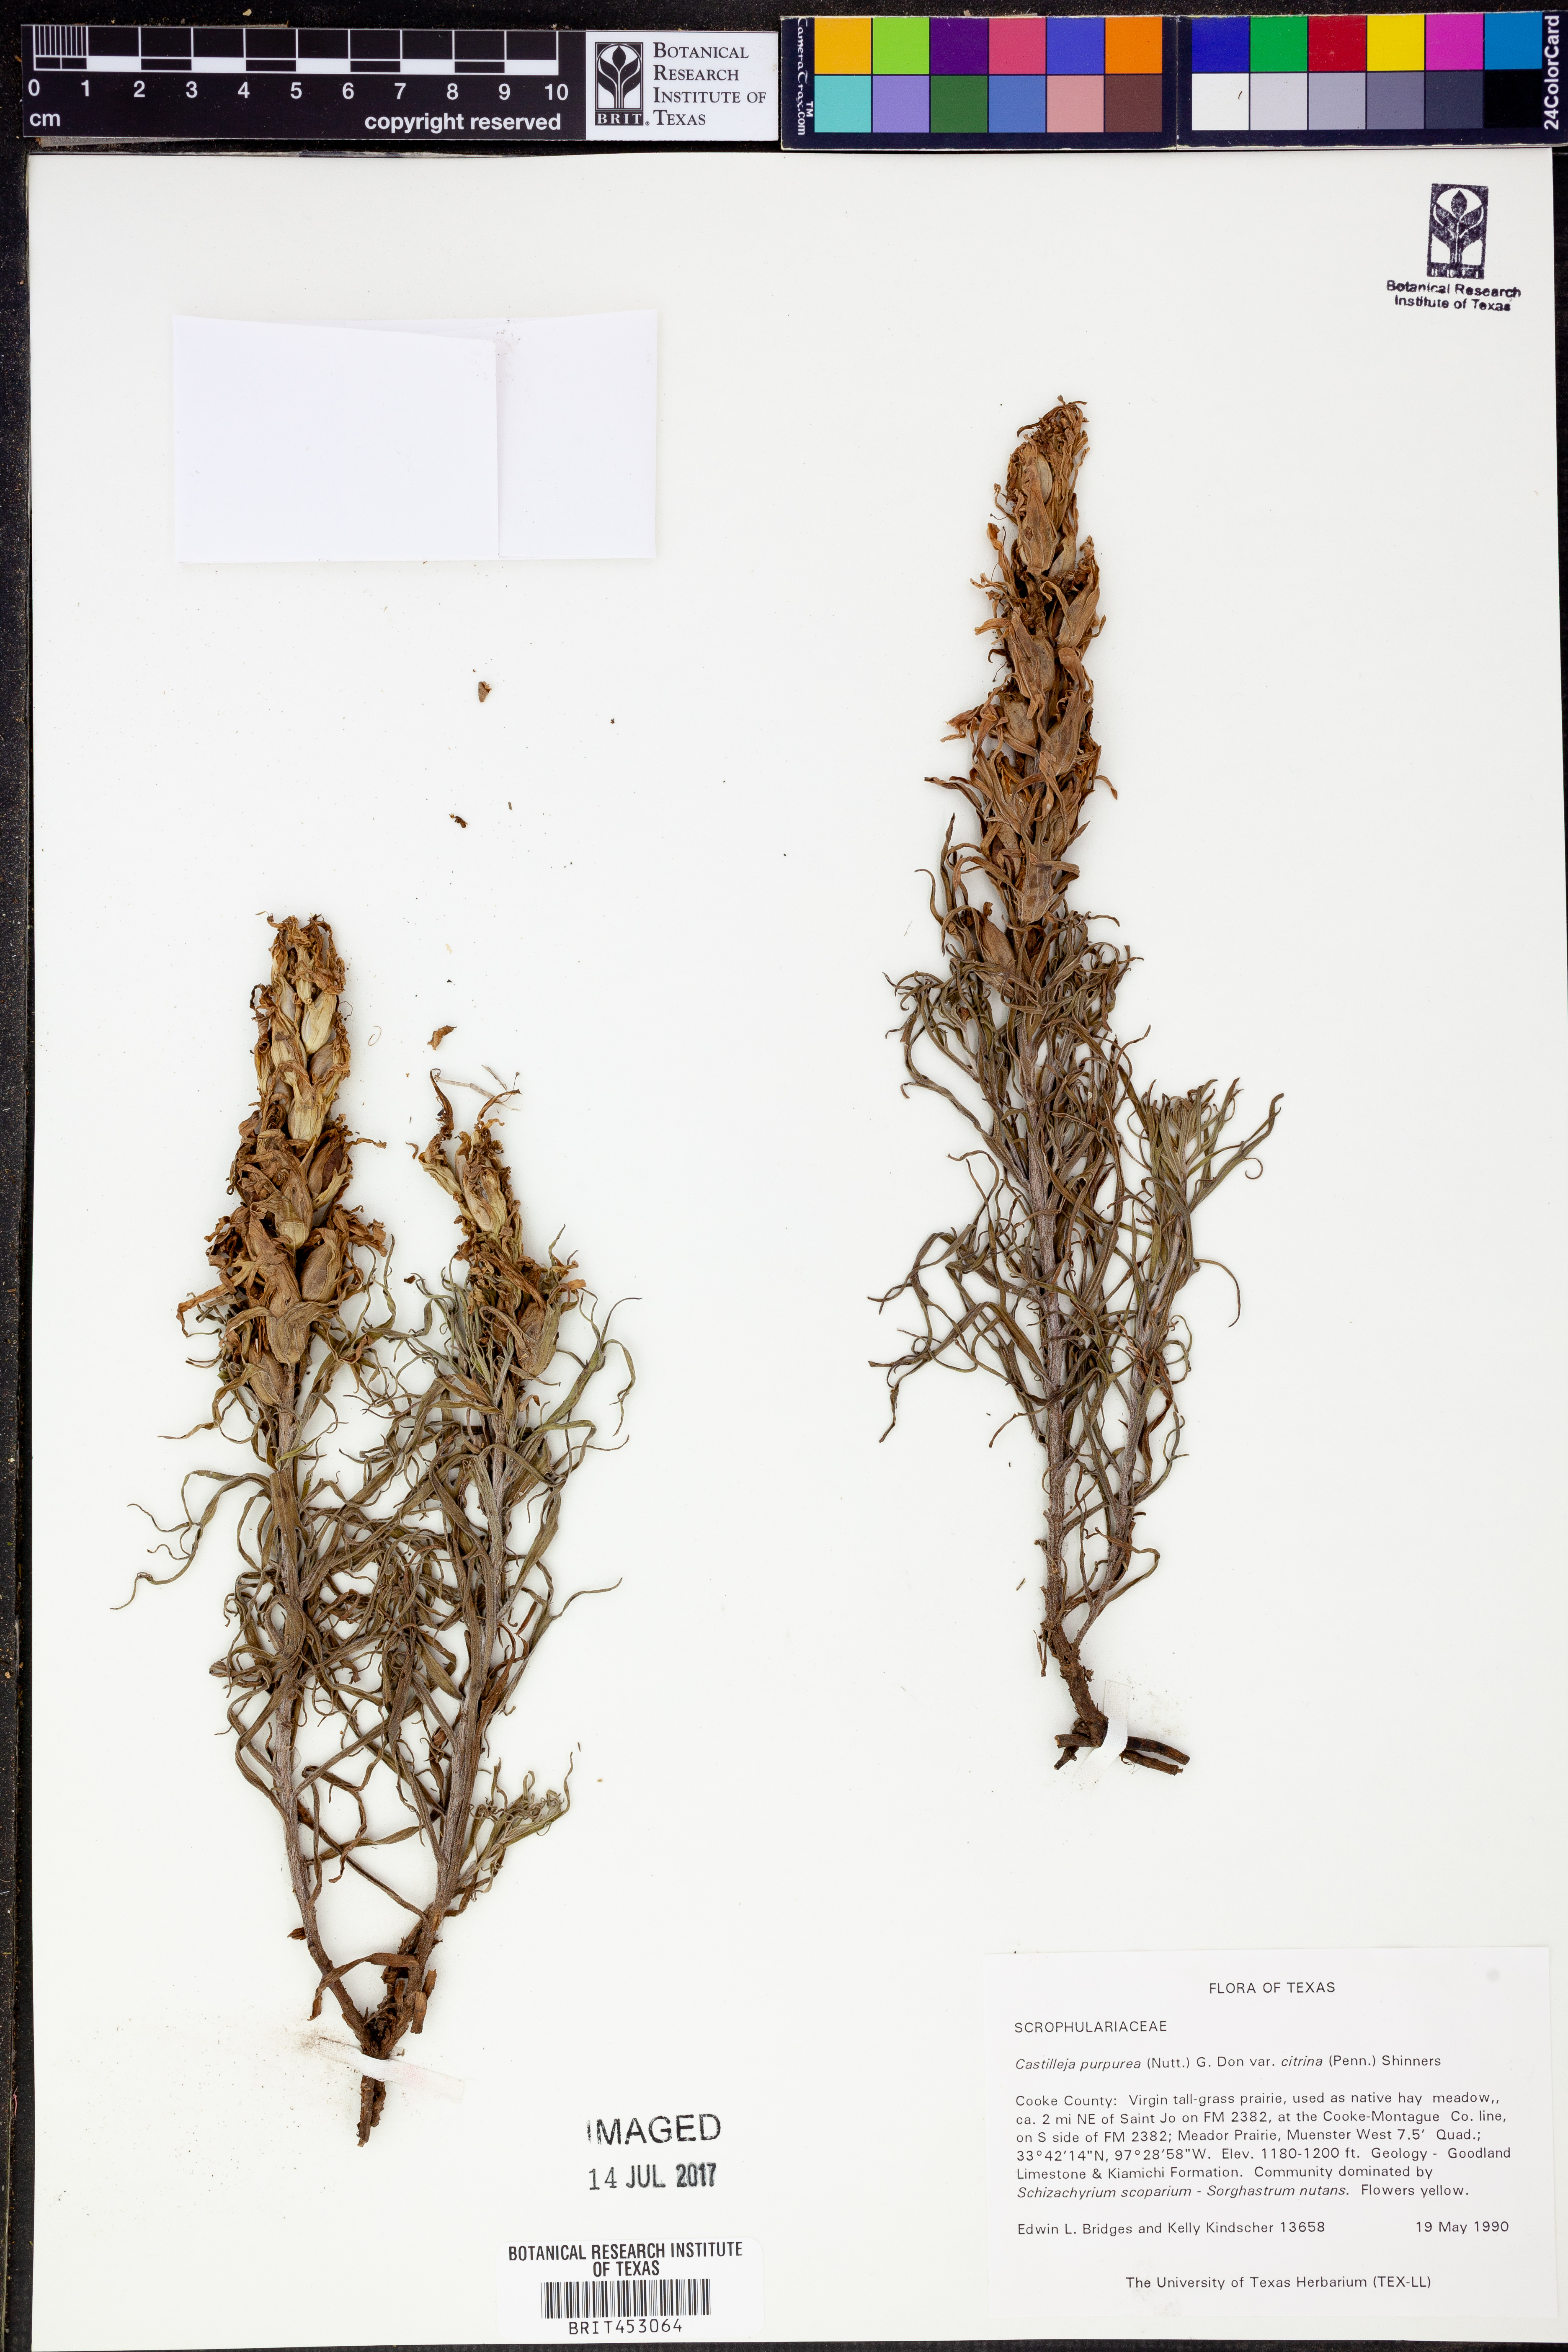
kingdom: Plantae
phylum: Tracheophyta
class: Magnoliopsida
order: Lamiales
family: Orobanchaceae
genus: Castilleja
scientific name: Castilleja citrina
